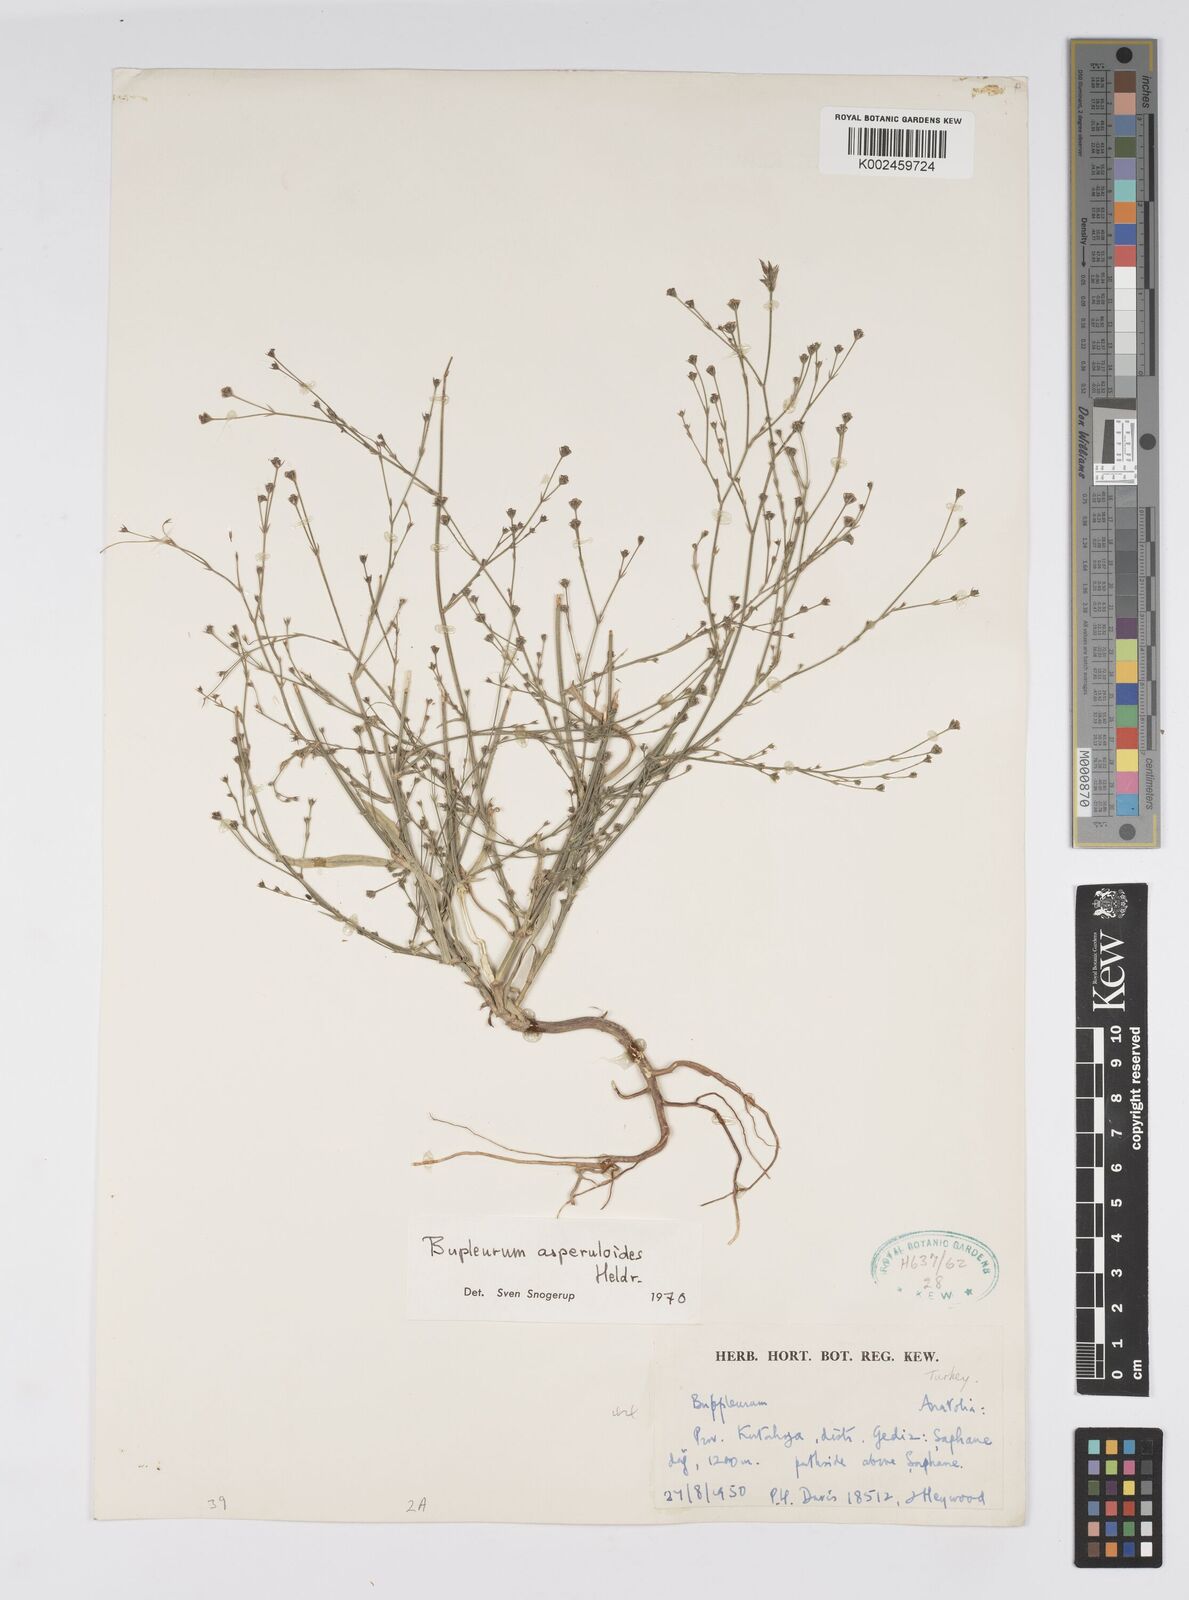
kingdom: Plantae
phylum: Tracheophyta
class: Magnoliopsida
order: Apiales
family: Apiaceae
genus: Bupleurum
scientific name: Bupleurum asperuloides
